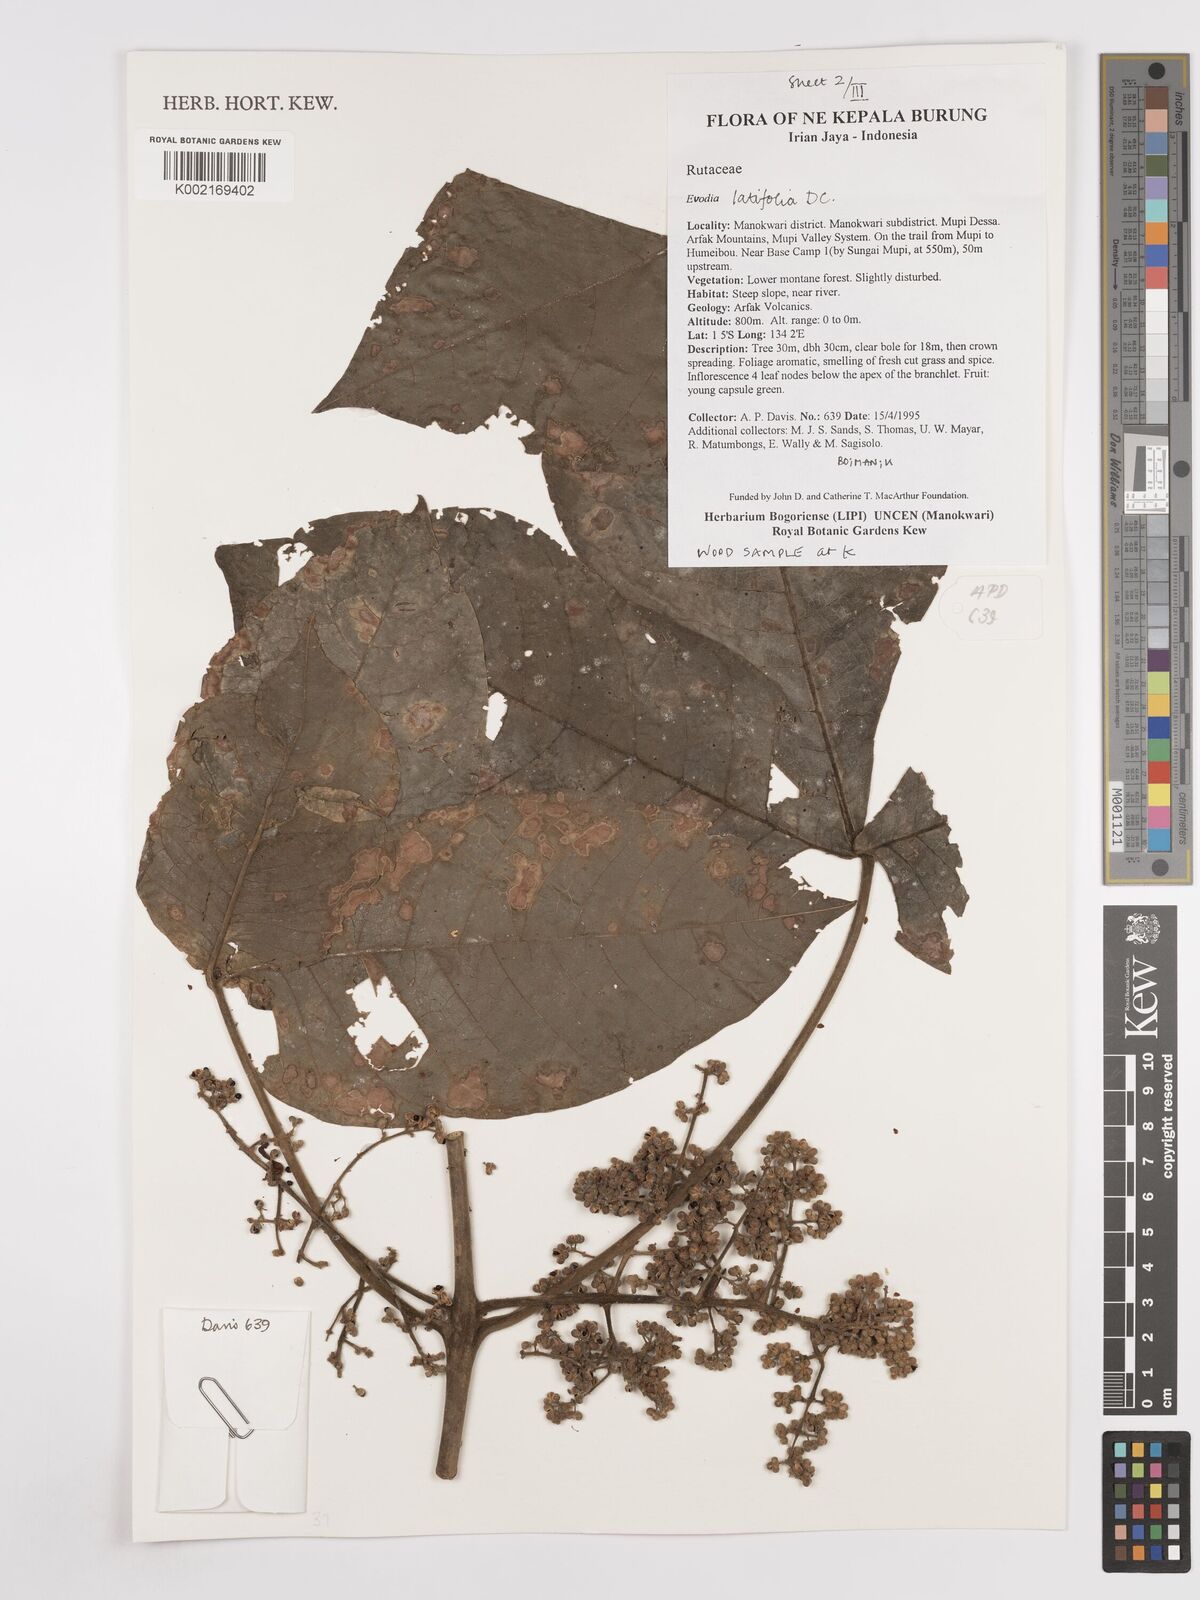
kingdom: Plantae
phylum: Tracheophyta
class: Magnoliopsida
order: Sapindales
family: Rutaceae
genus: Melicope
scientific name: Melicope latifolia
